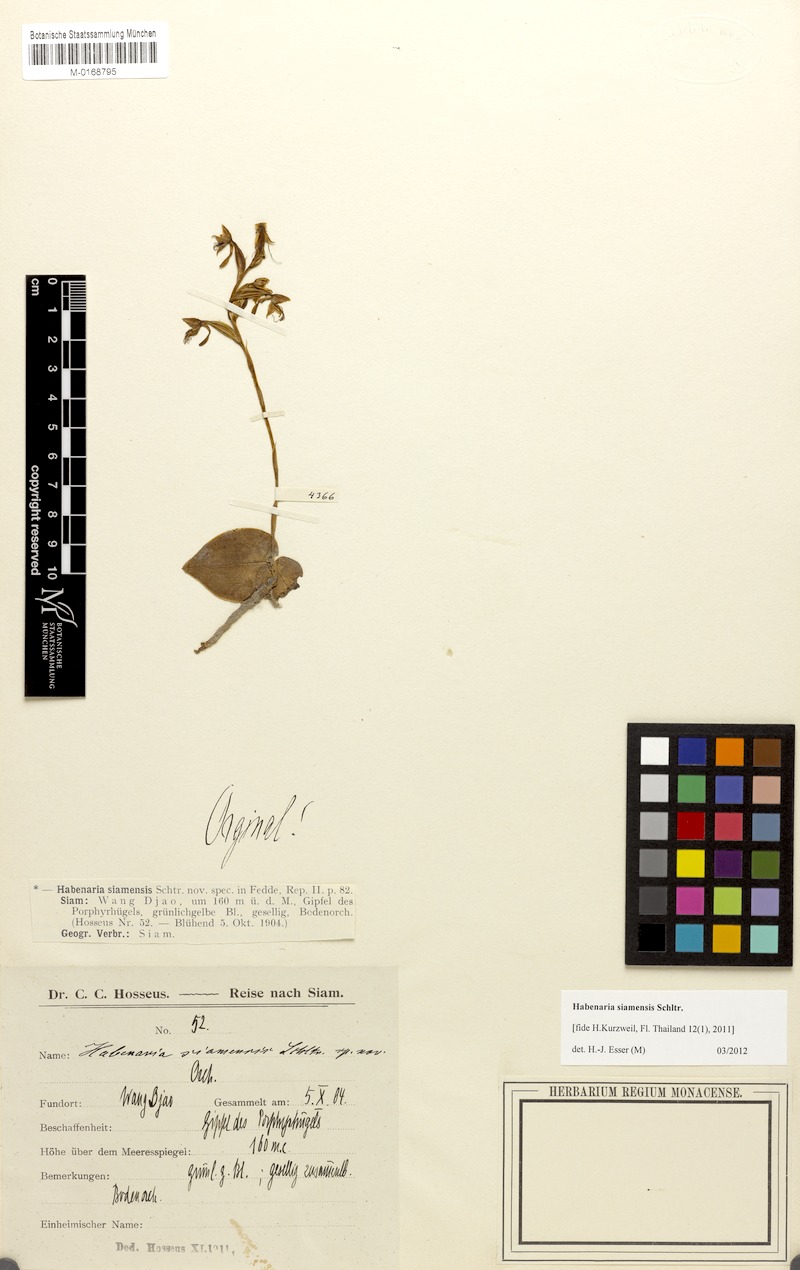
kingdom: Plantae
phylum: Tracheophyta
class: Liliopsida
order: Asparagales
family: Orchidaceae
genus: Habenaria
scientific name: Habenaria siamensis
